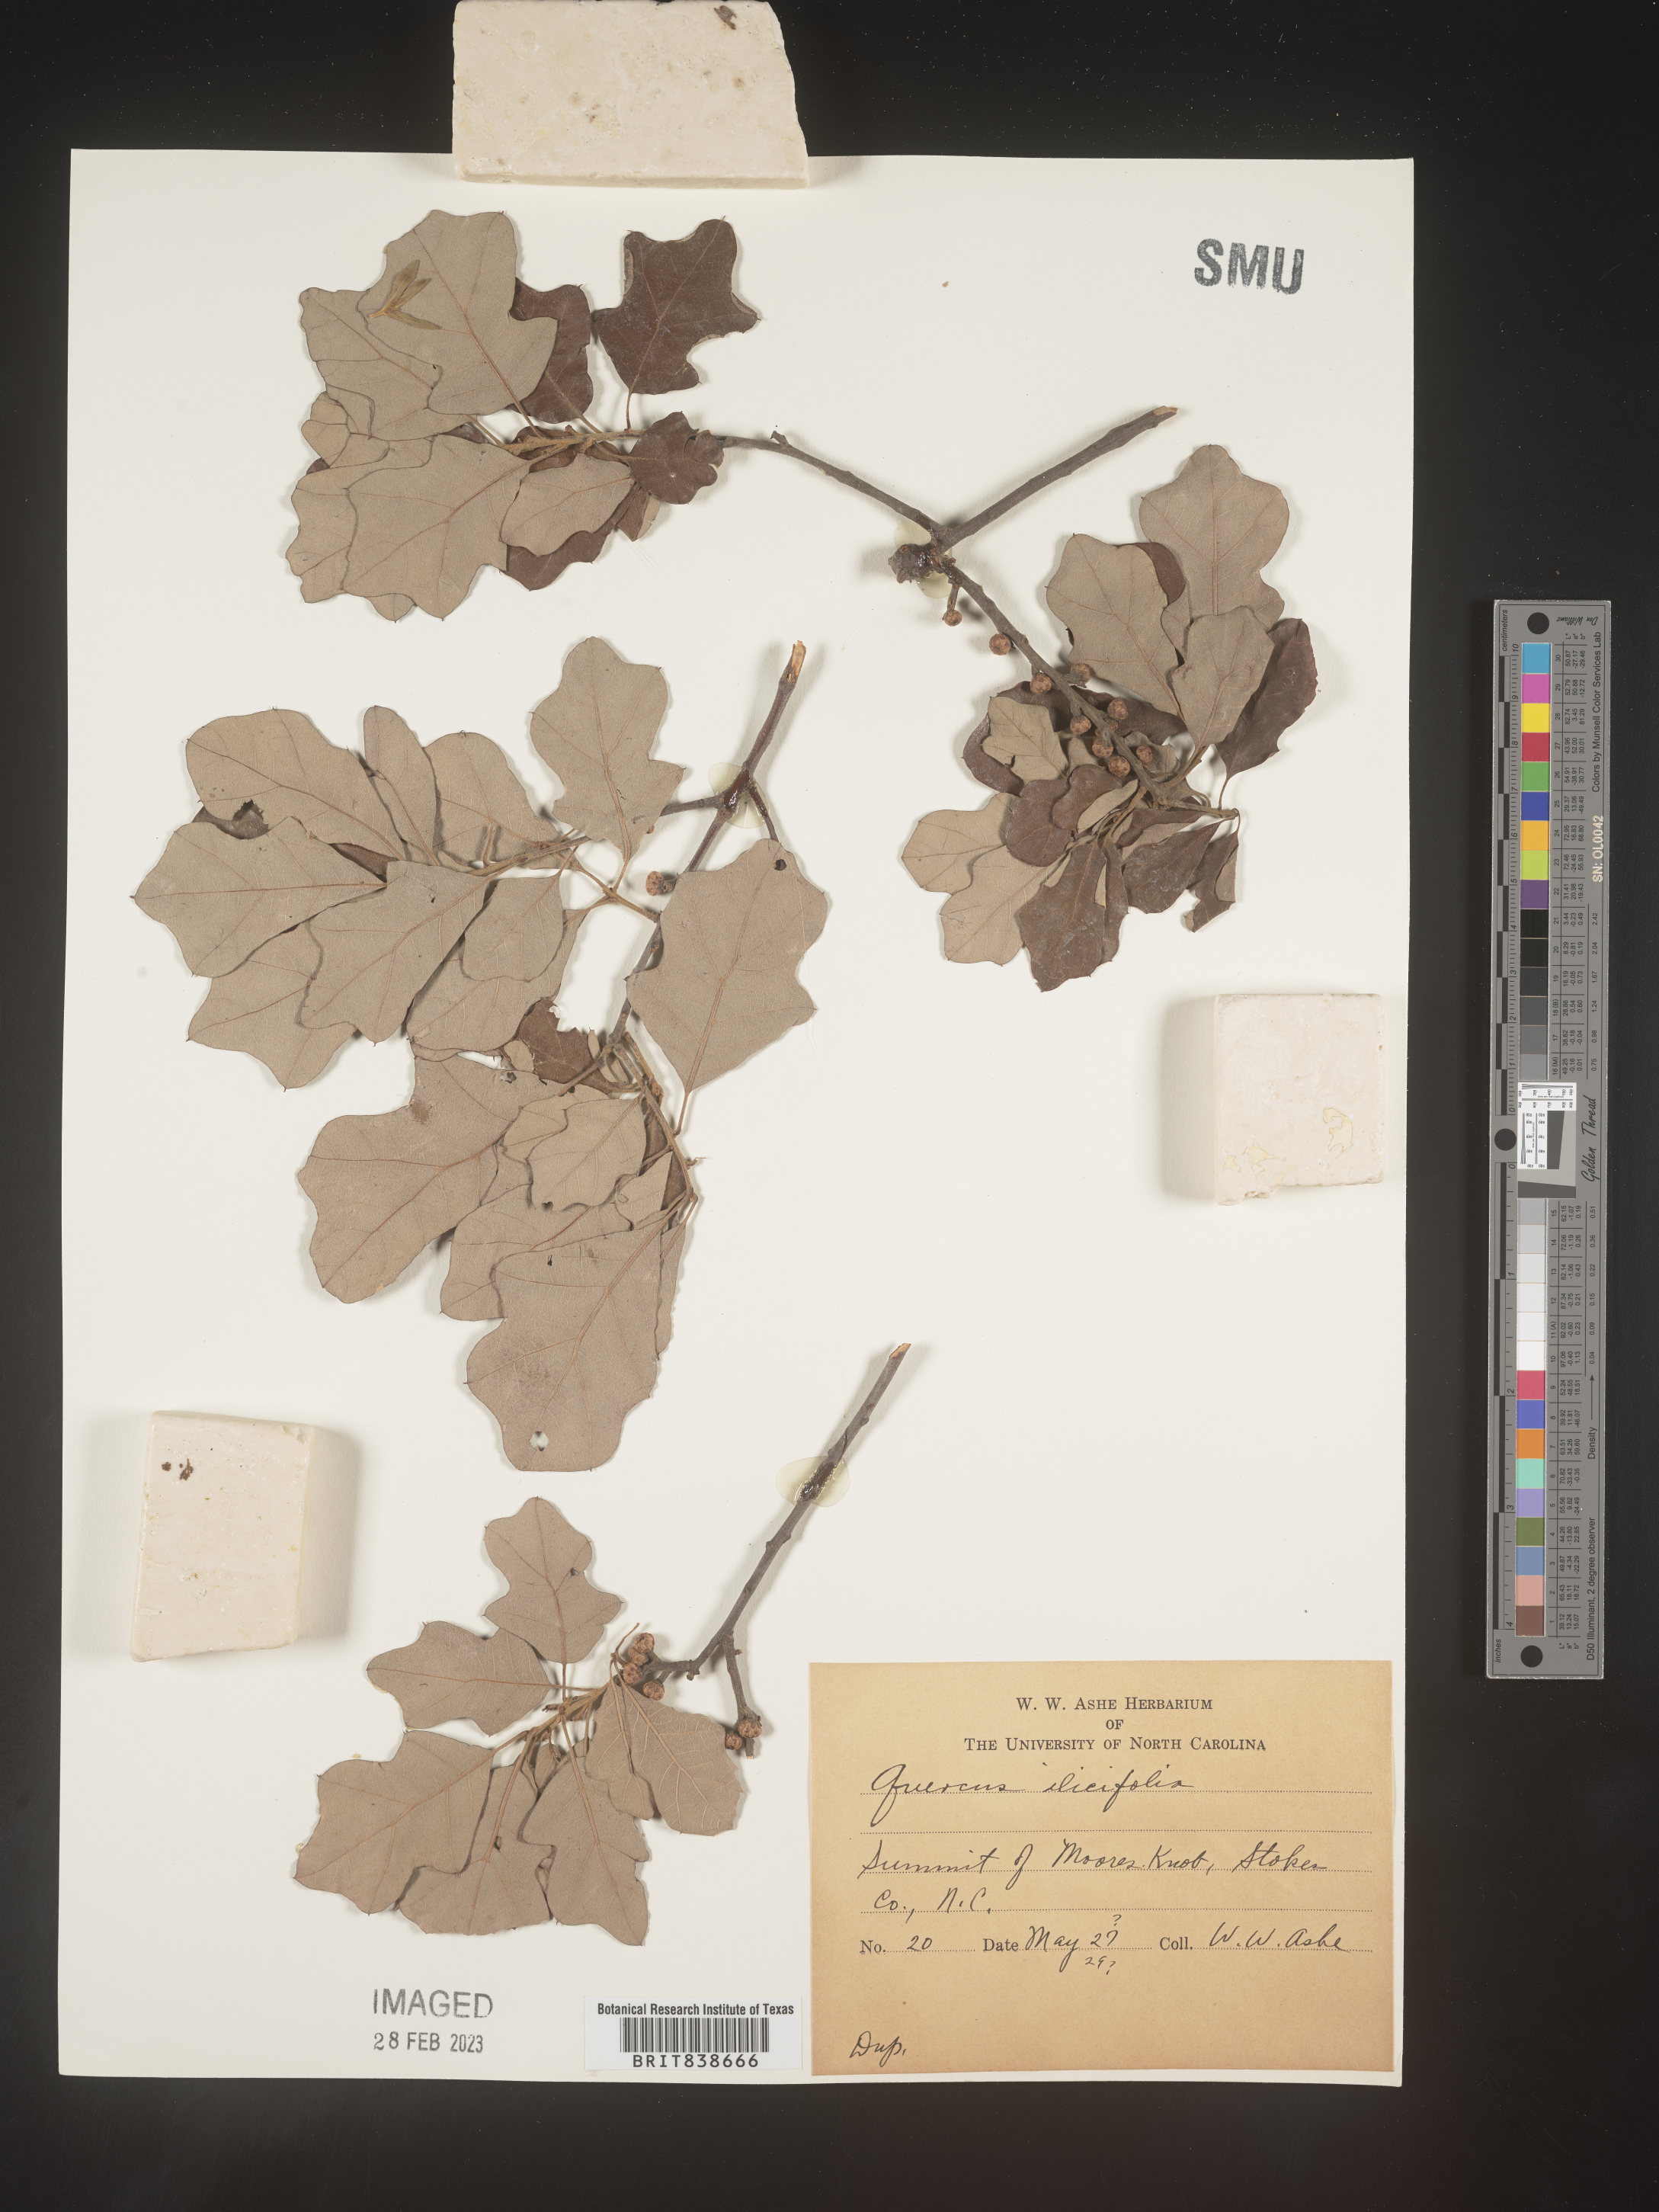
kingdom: Plantae
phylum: Tracheophyta
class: Magnoliopsida
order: Fagales
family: Fagaceae
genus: Quercus
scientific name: Quercus ilicifolia
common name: Bear oak
